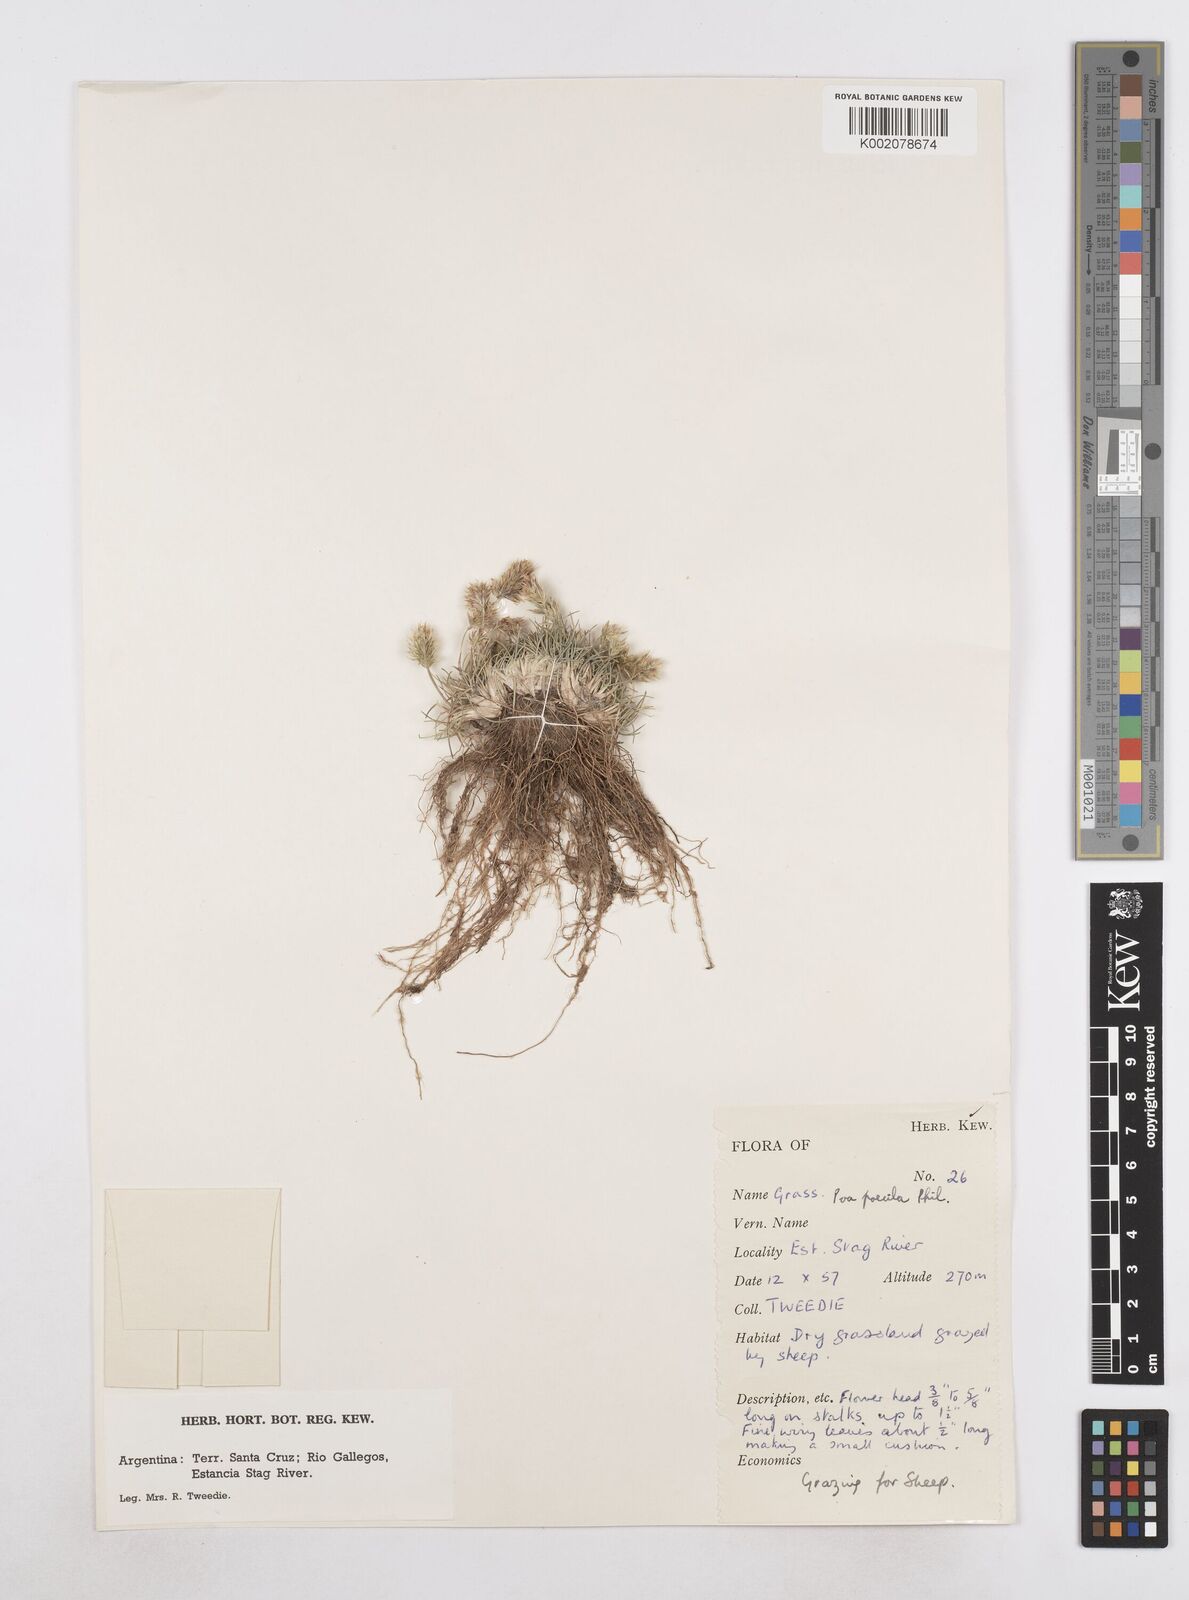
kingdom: Plantae
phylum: Tracheophyta
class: Liliopsida
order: Poales
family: Poaceae
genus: Poa
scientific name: Poa spiciformis
